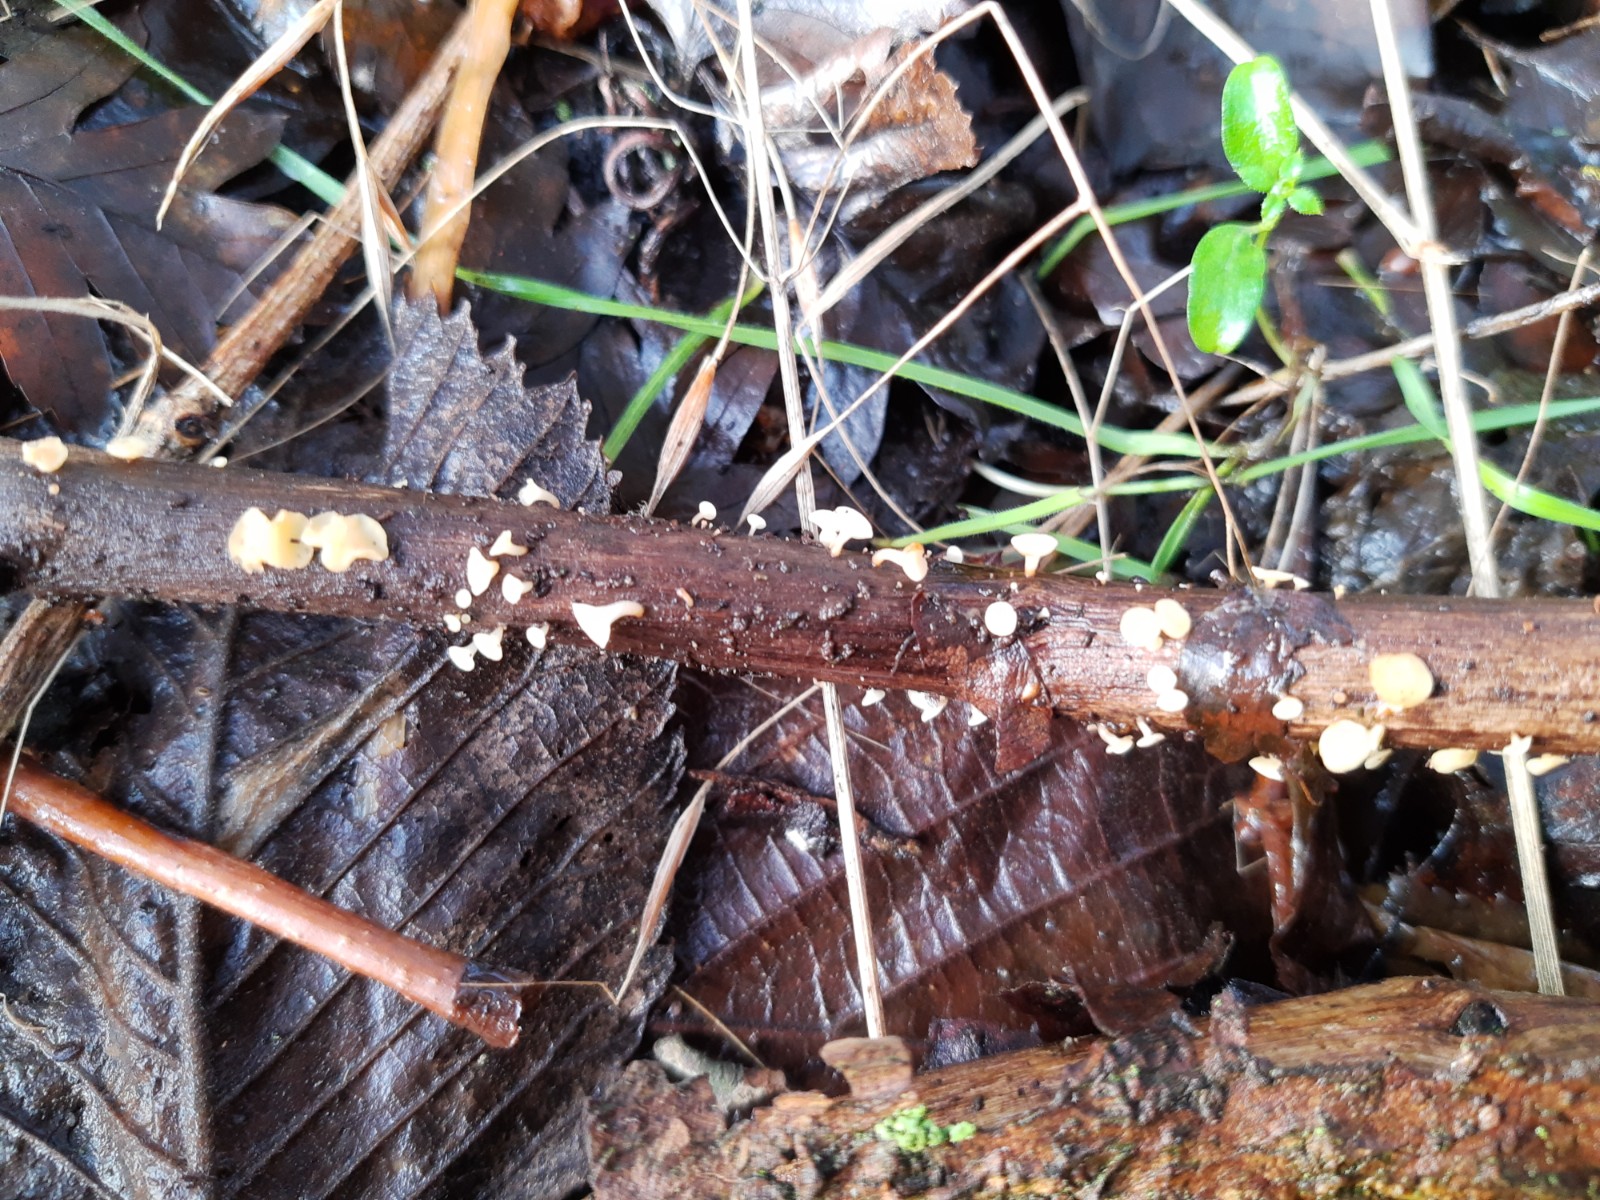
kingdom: Fungi
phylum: Ascomycota
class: Leotiomycetes
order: Helotiales
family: Helotiaceae
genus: Hymenoscyphus
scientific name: Hymenoscyphus
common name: stilkskive
